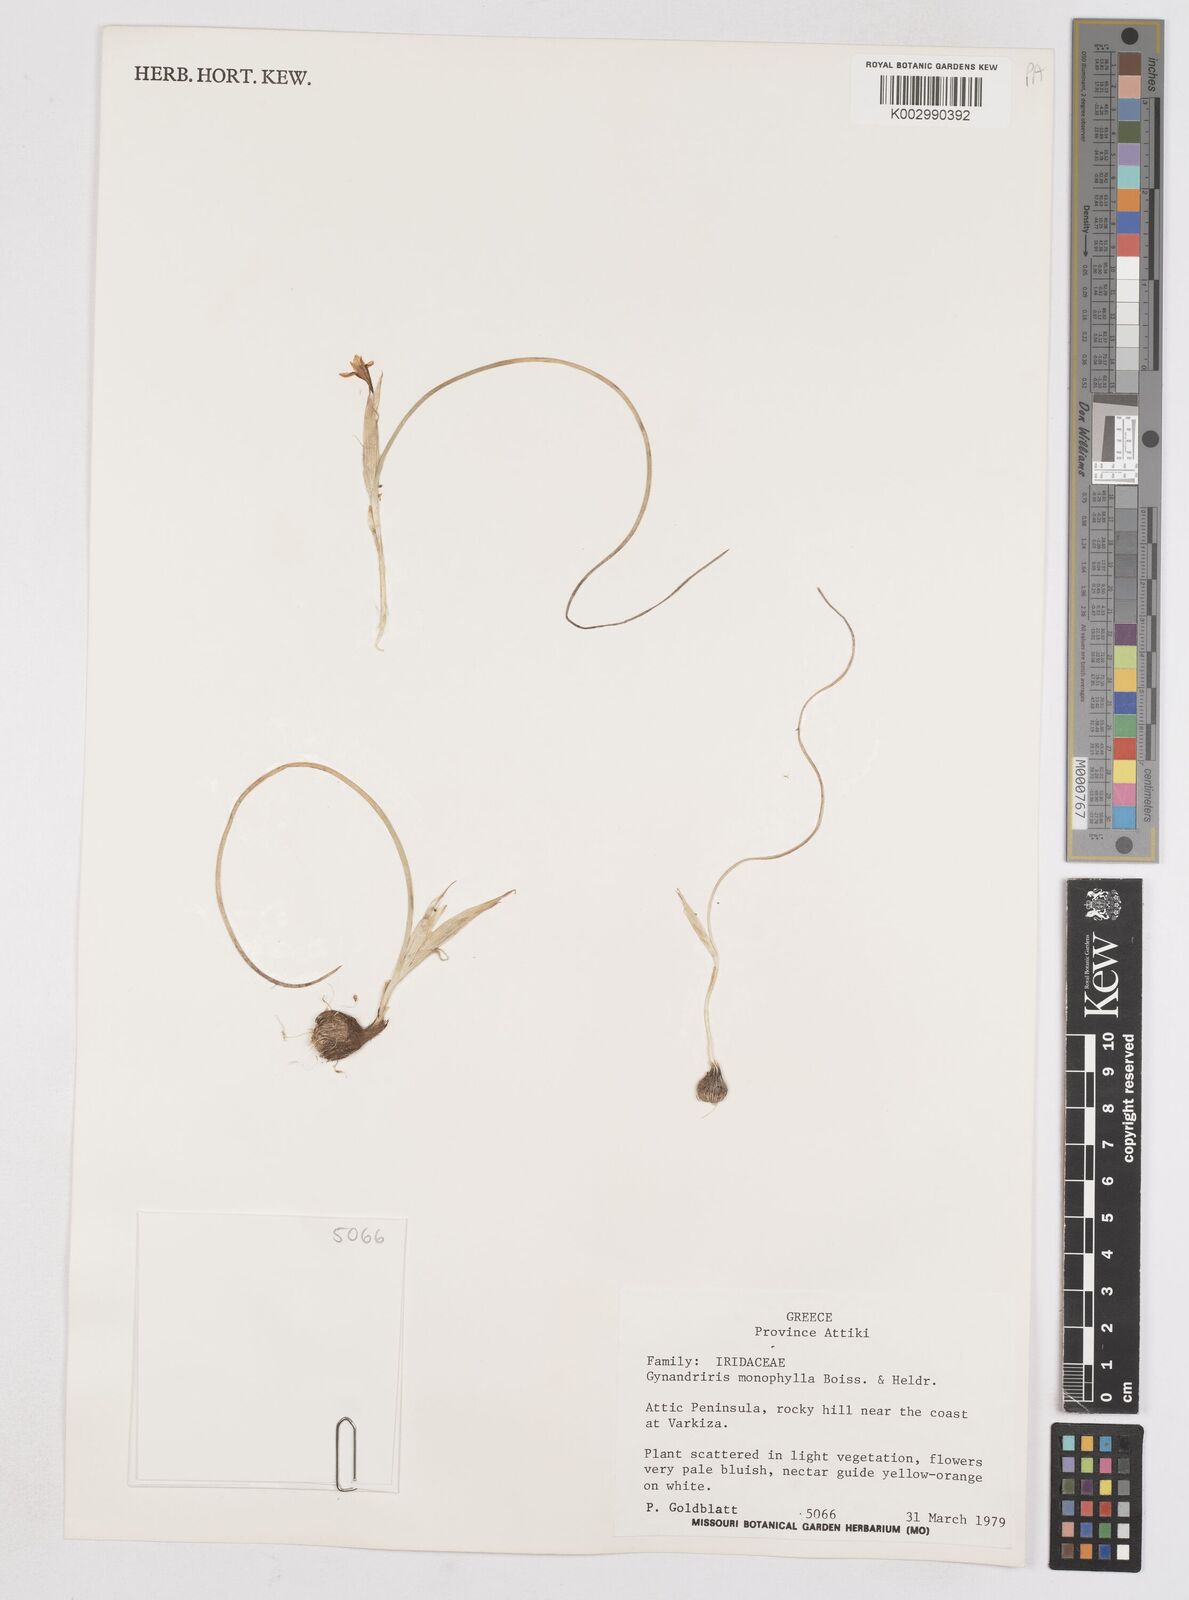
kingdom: Plantae
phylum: Tracheophyta
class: Liliopsida
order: Asparagales
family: Iridaceae
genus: Moraea
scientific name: Moraea
